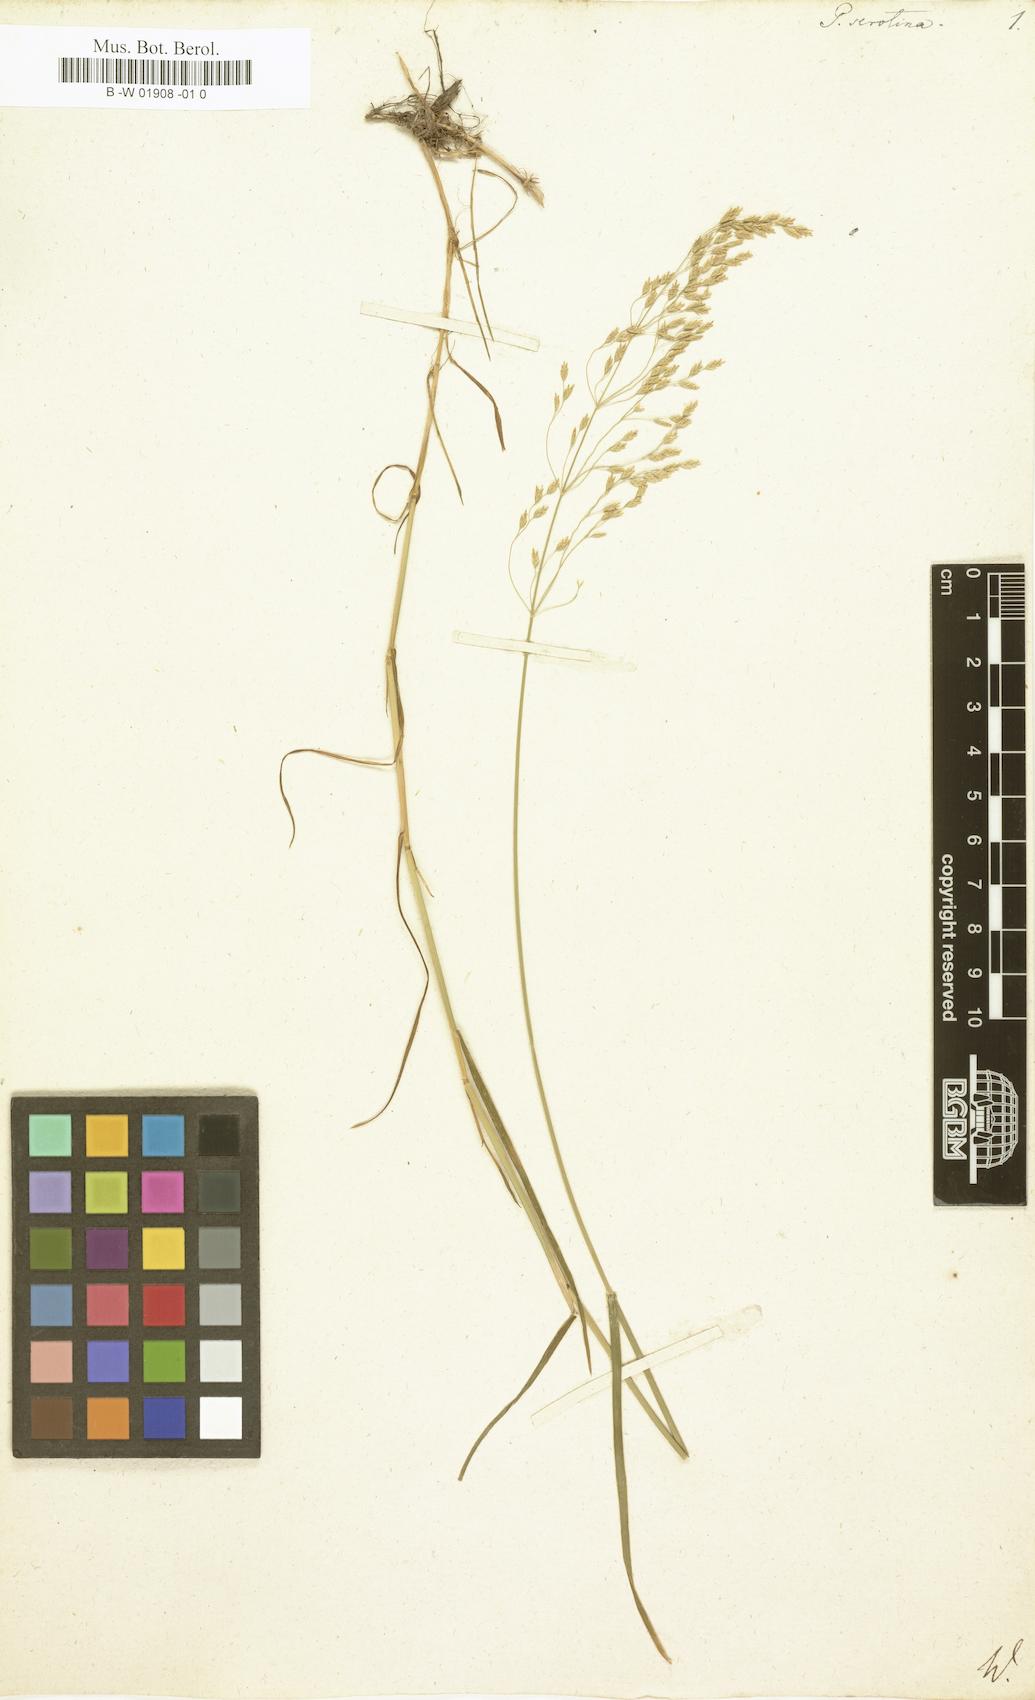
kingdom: Plantae
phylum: Tracheophyta
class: Liliopsida
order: Poales
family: Poaceae
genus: Poa
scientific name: Poa palustris
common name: Swamp meadow-grass
